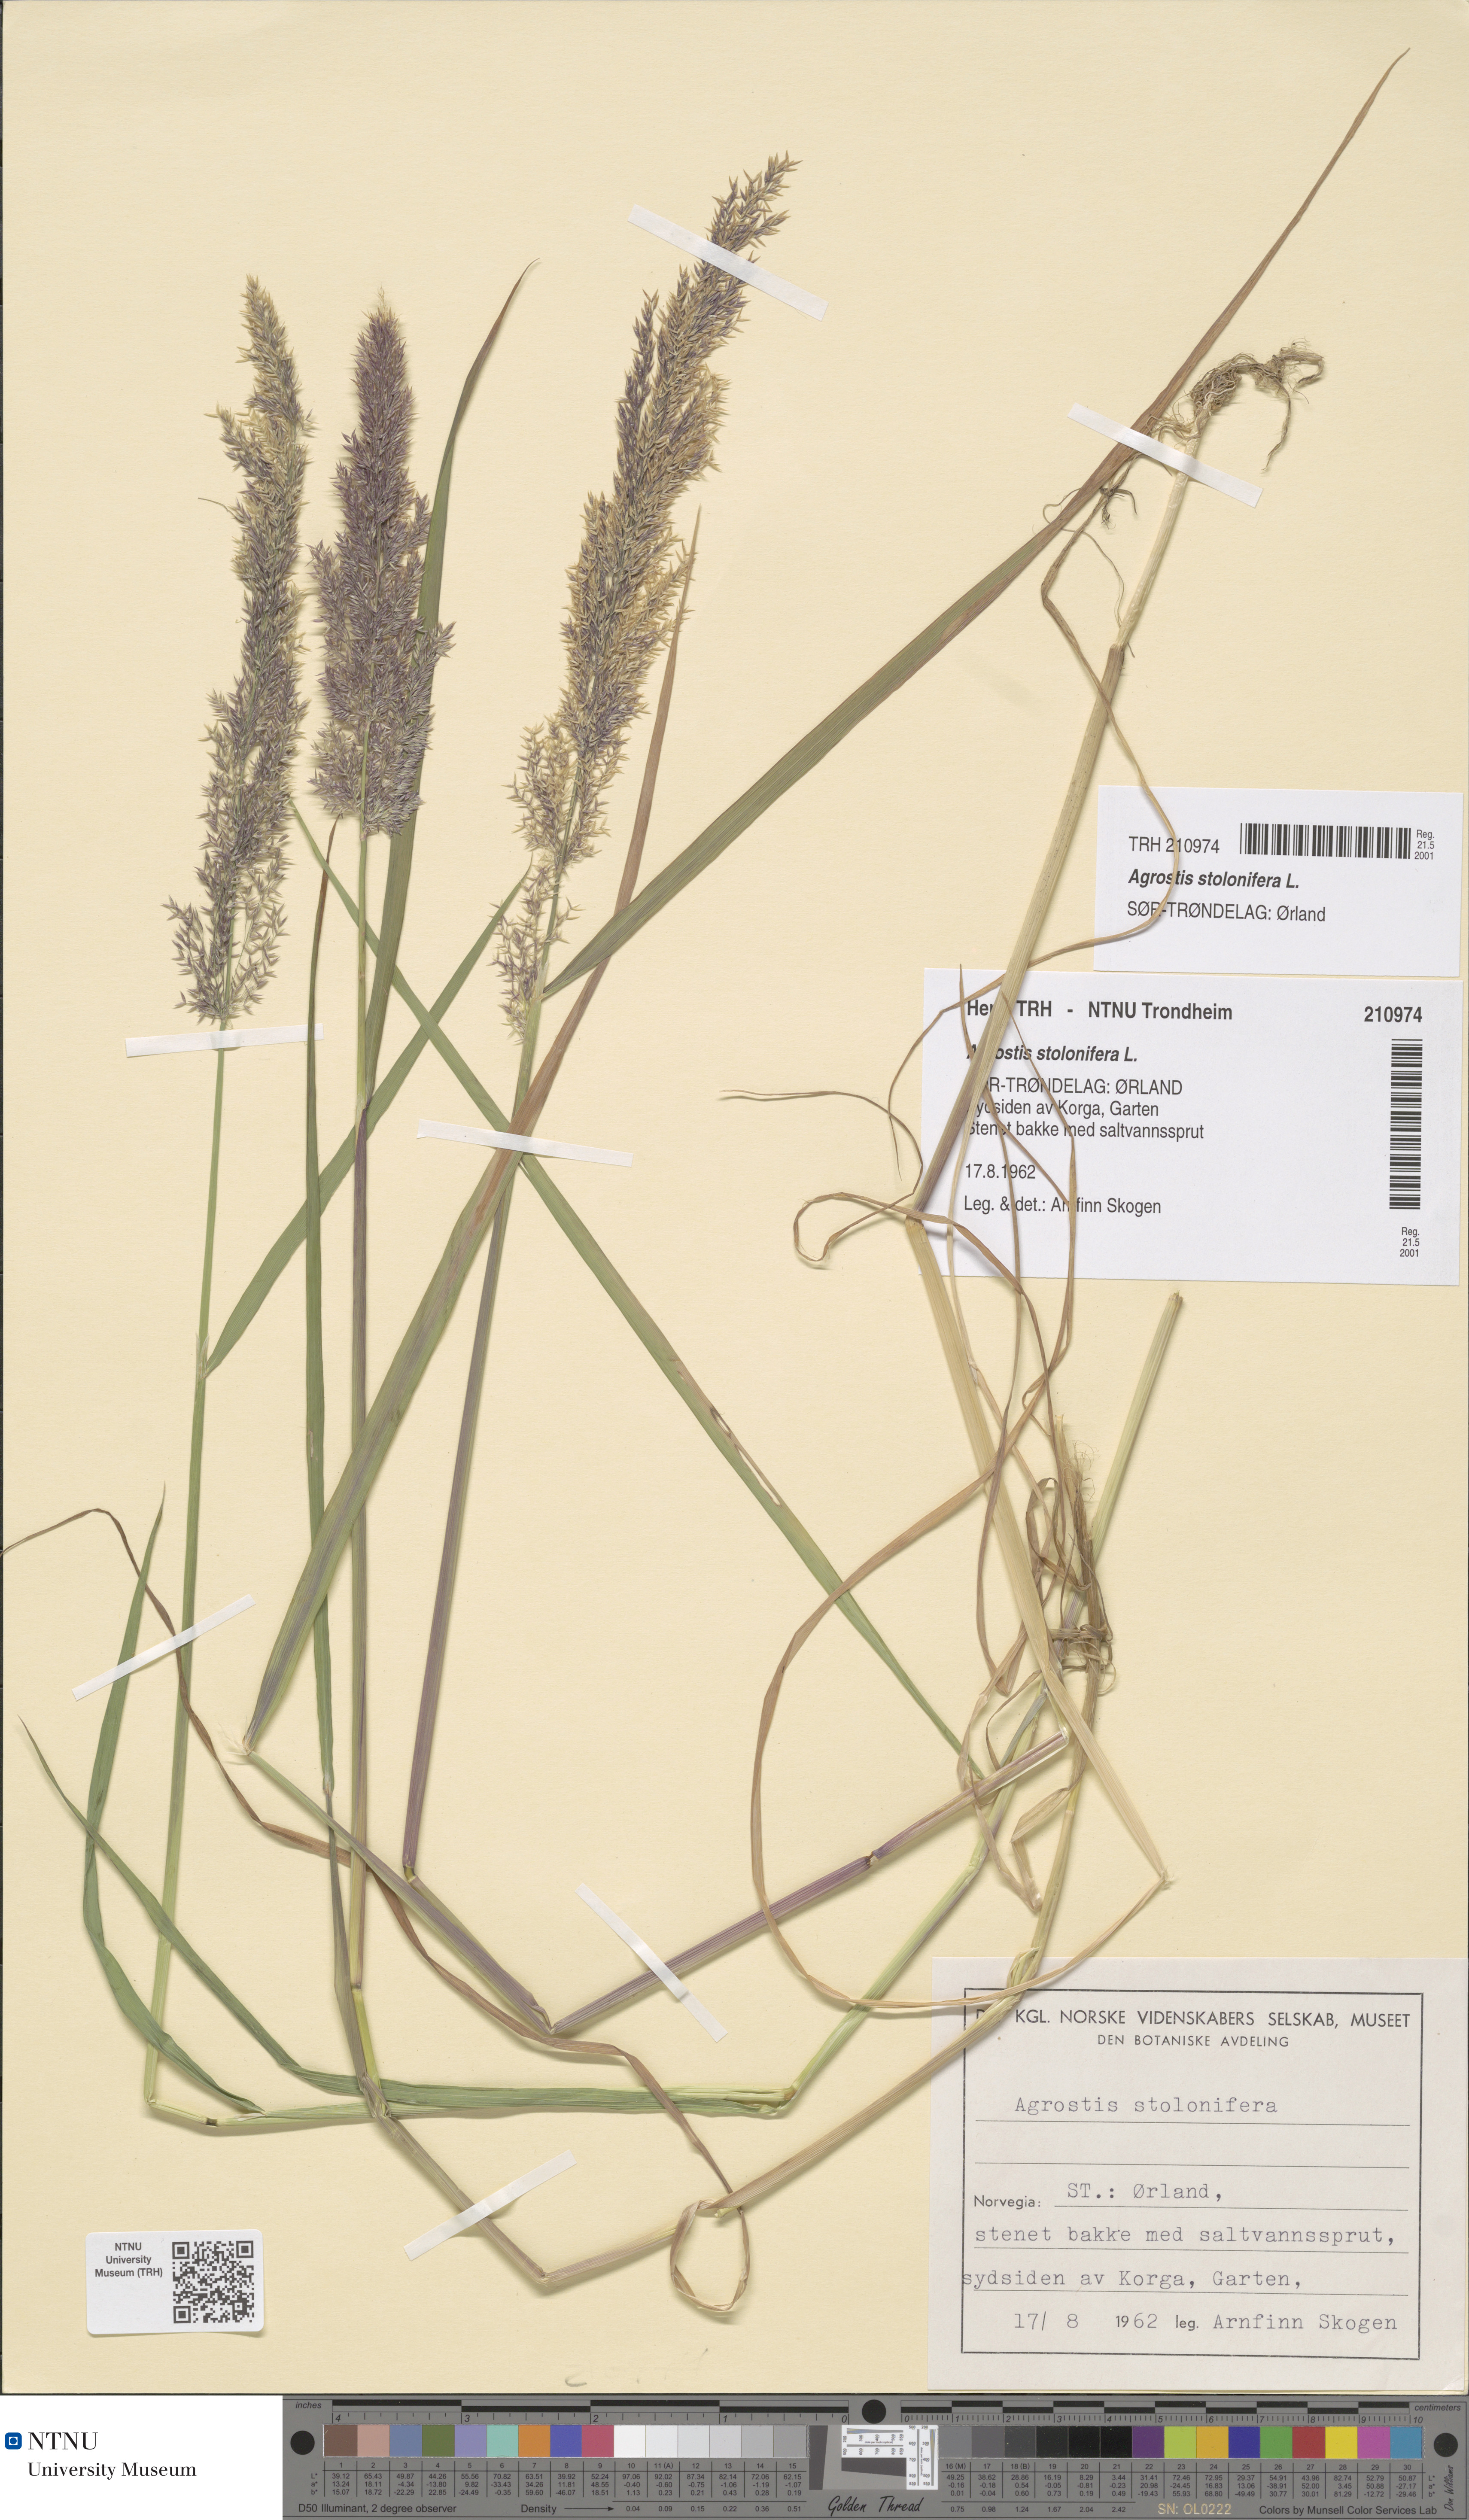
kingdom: Plantae
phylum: Tracheophyta
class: Liliopsida
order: Poales
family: Poaceae
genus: Agrostis
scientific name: Agrostis stolonifera
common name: Creeping bentgrass
